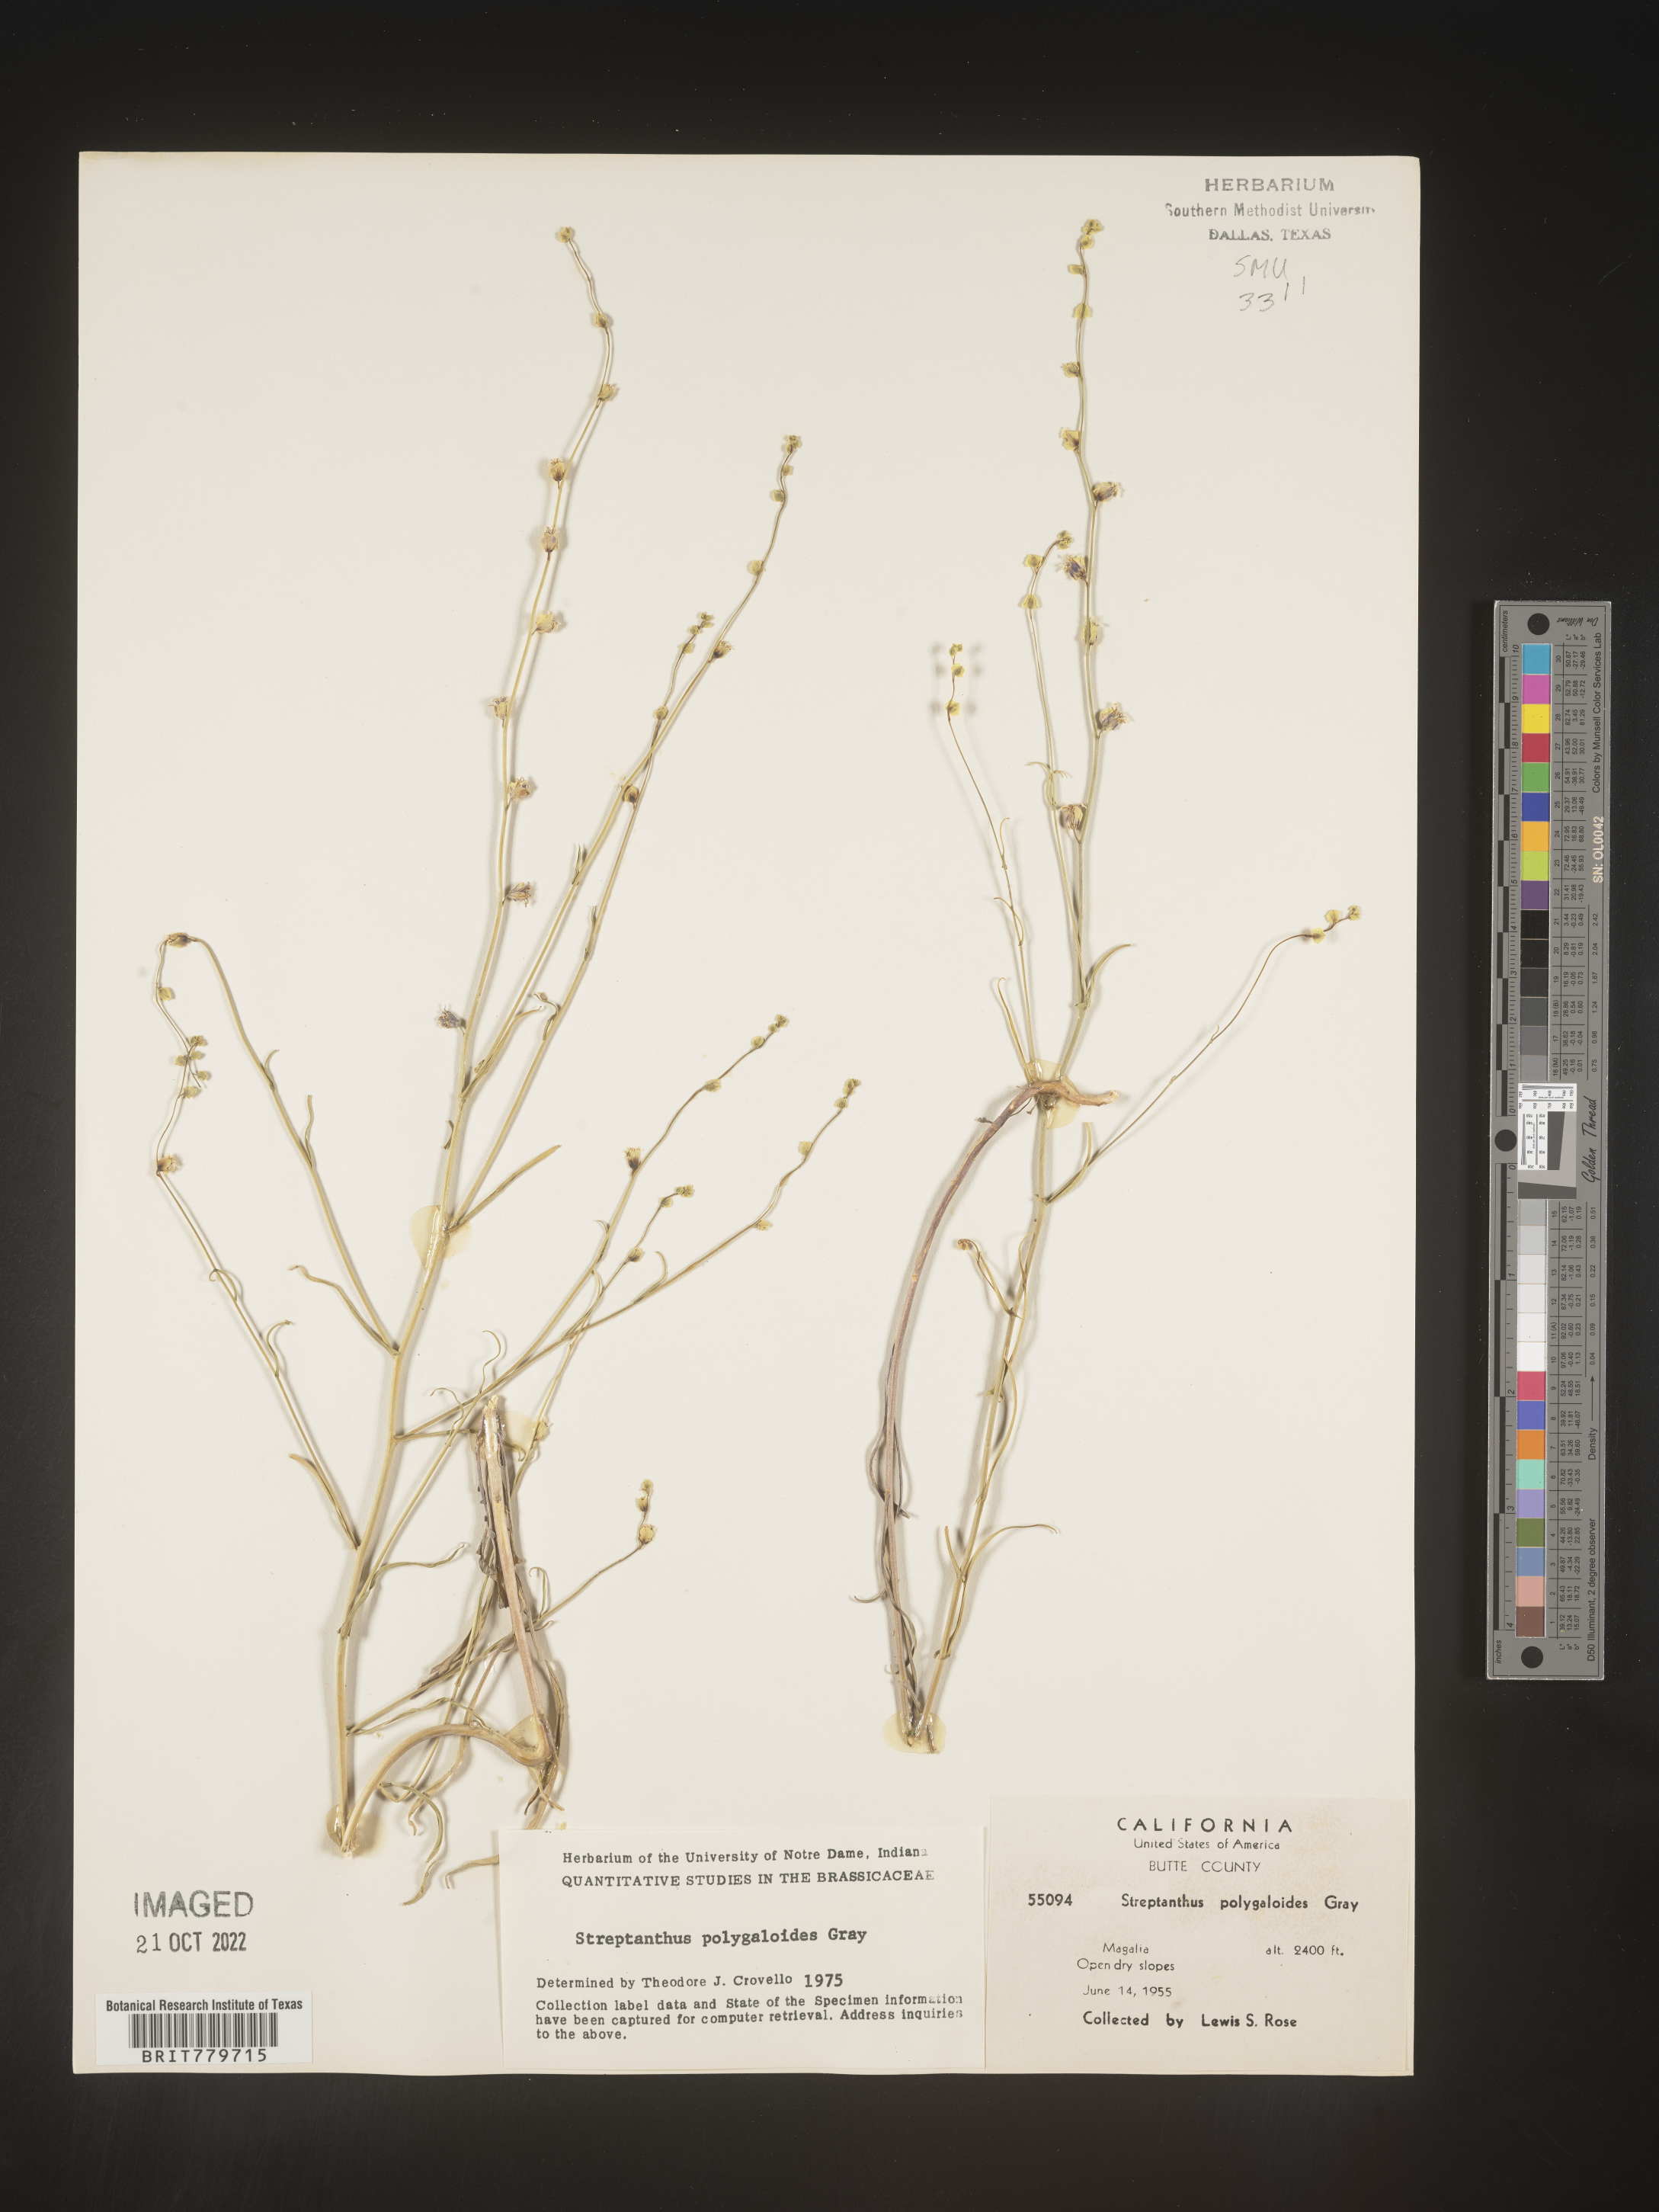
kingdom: Plantae
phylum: Tracheophyta
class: Magnoliopsida
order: Brassicales
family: Brassicaceae
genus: Streptanthus
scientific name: Streptanthus
